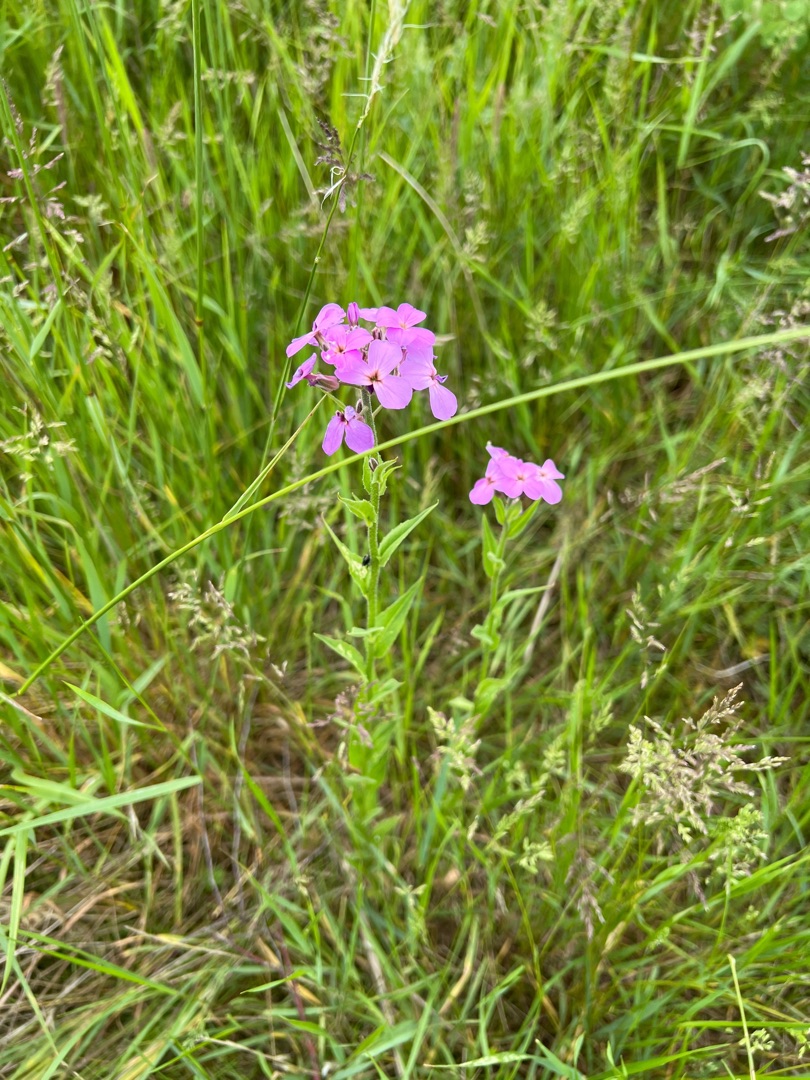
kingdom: Plantae
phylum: Tracheophyta
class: Magnoliopsida
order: Brassicales
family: Brassicaceae
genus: Hesperis
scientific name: Hesperis matronalis
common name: Aftenstjerne
